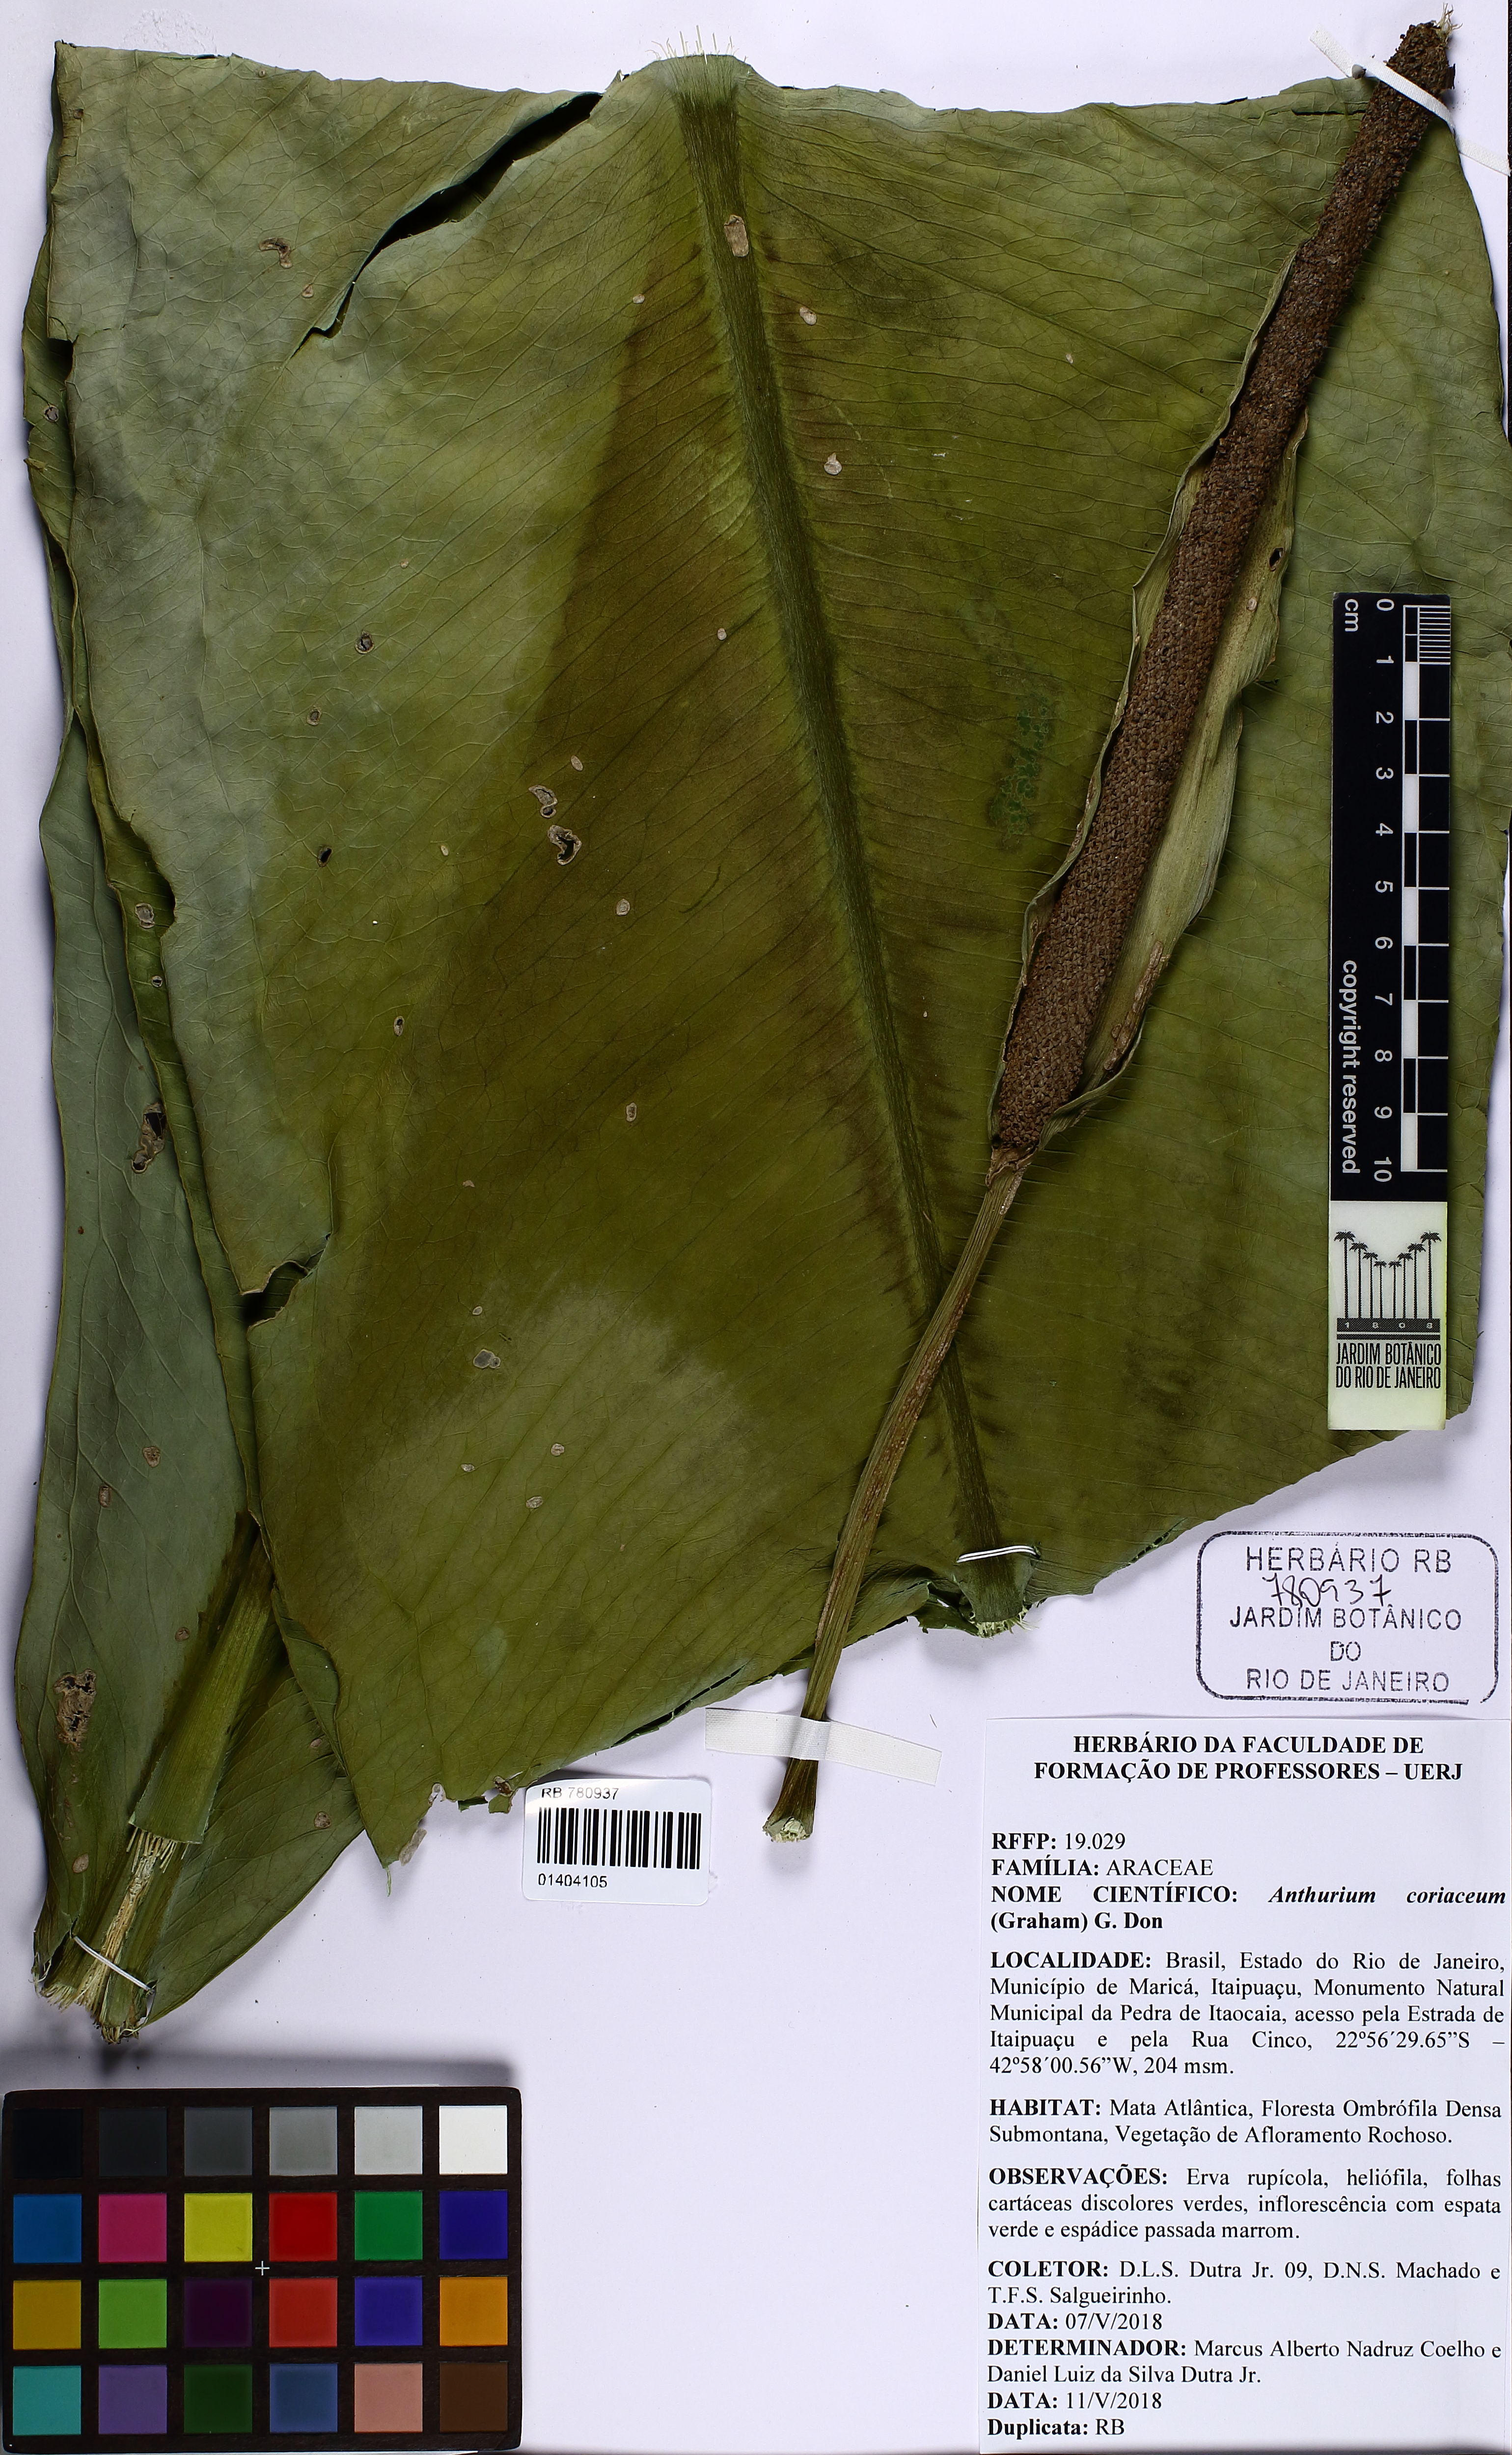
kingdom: Plantae
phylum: Tracheophyta
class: Liliopsida
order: Alismatales
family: Araceae
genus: Anthurium
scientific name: Anthurium coriaceum
